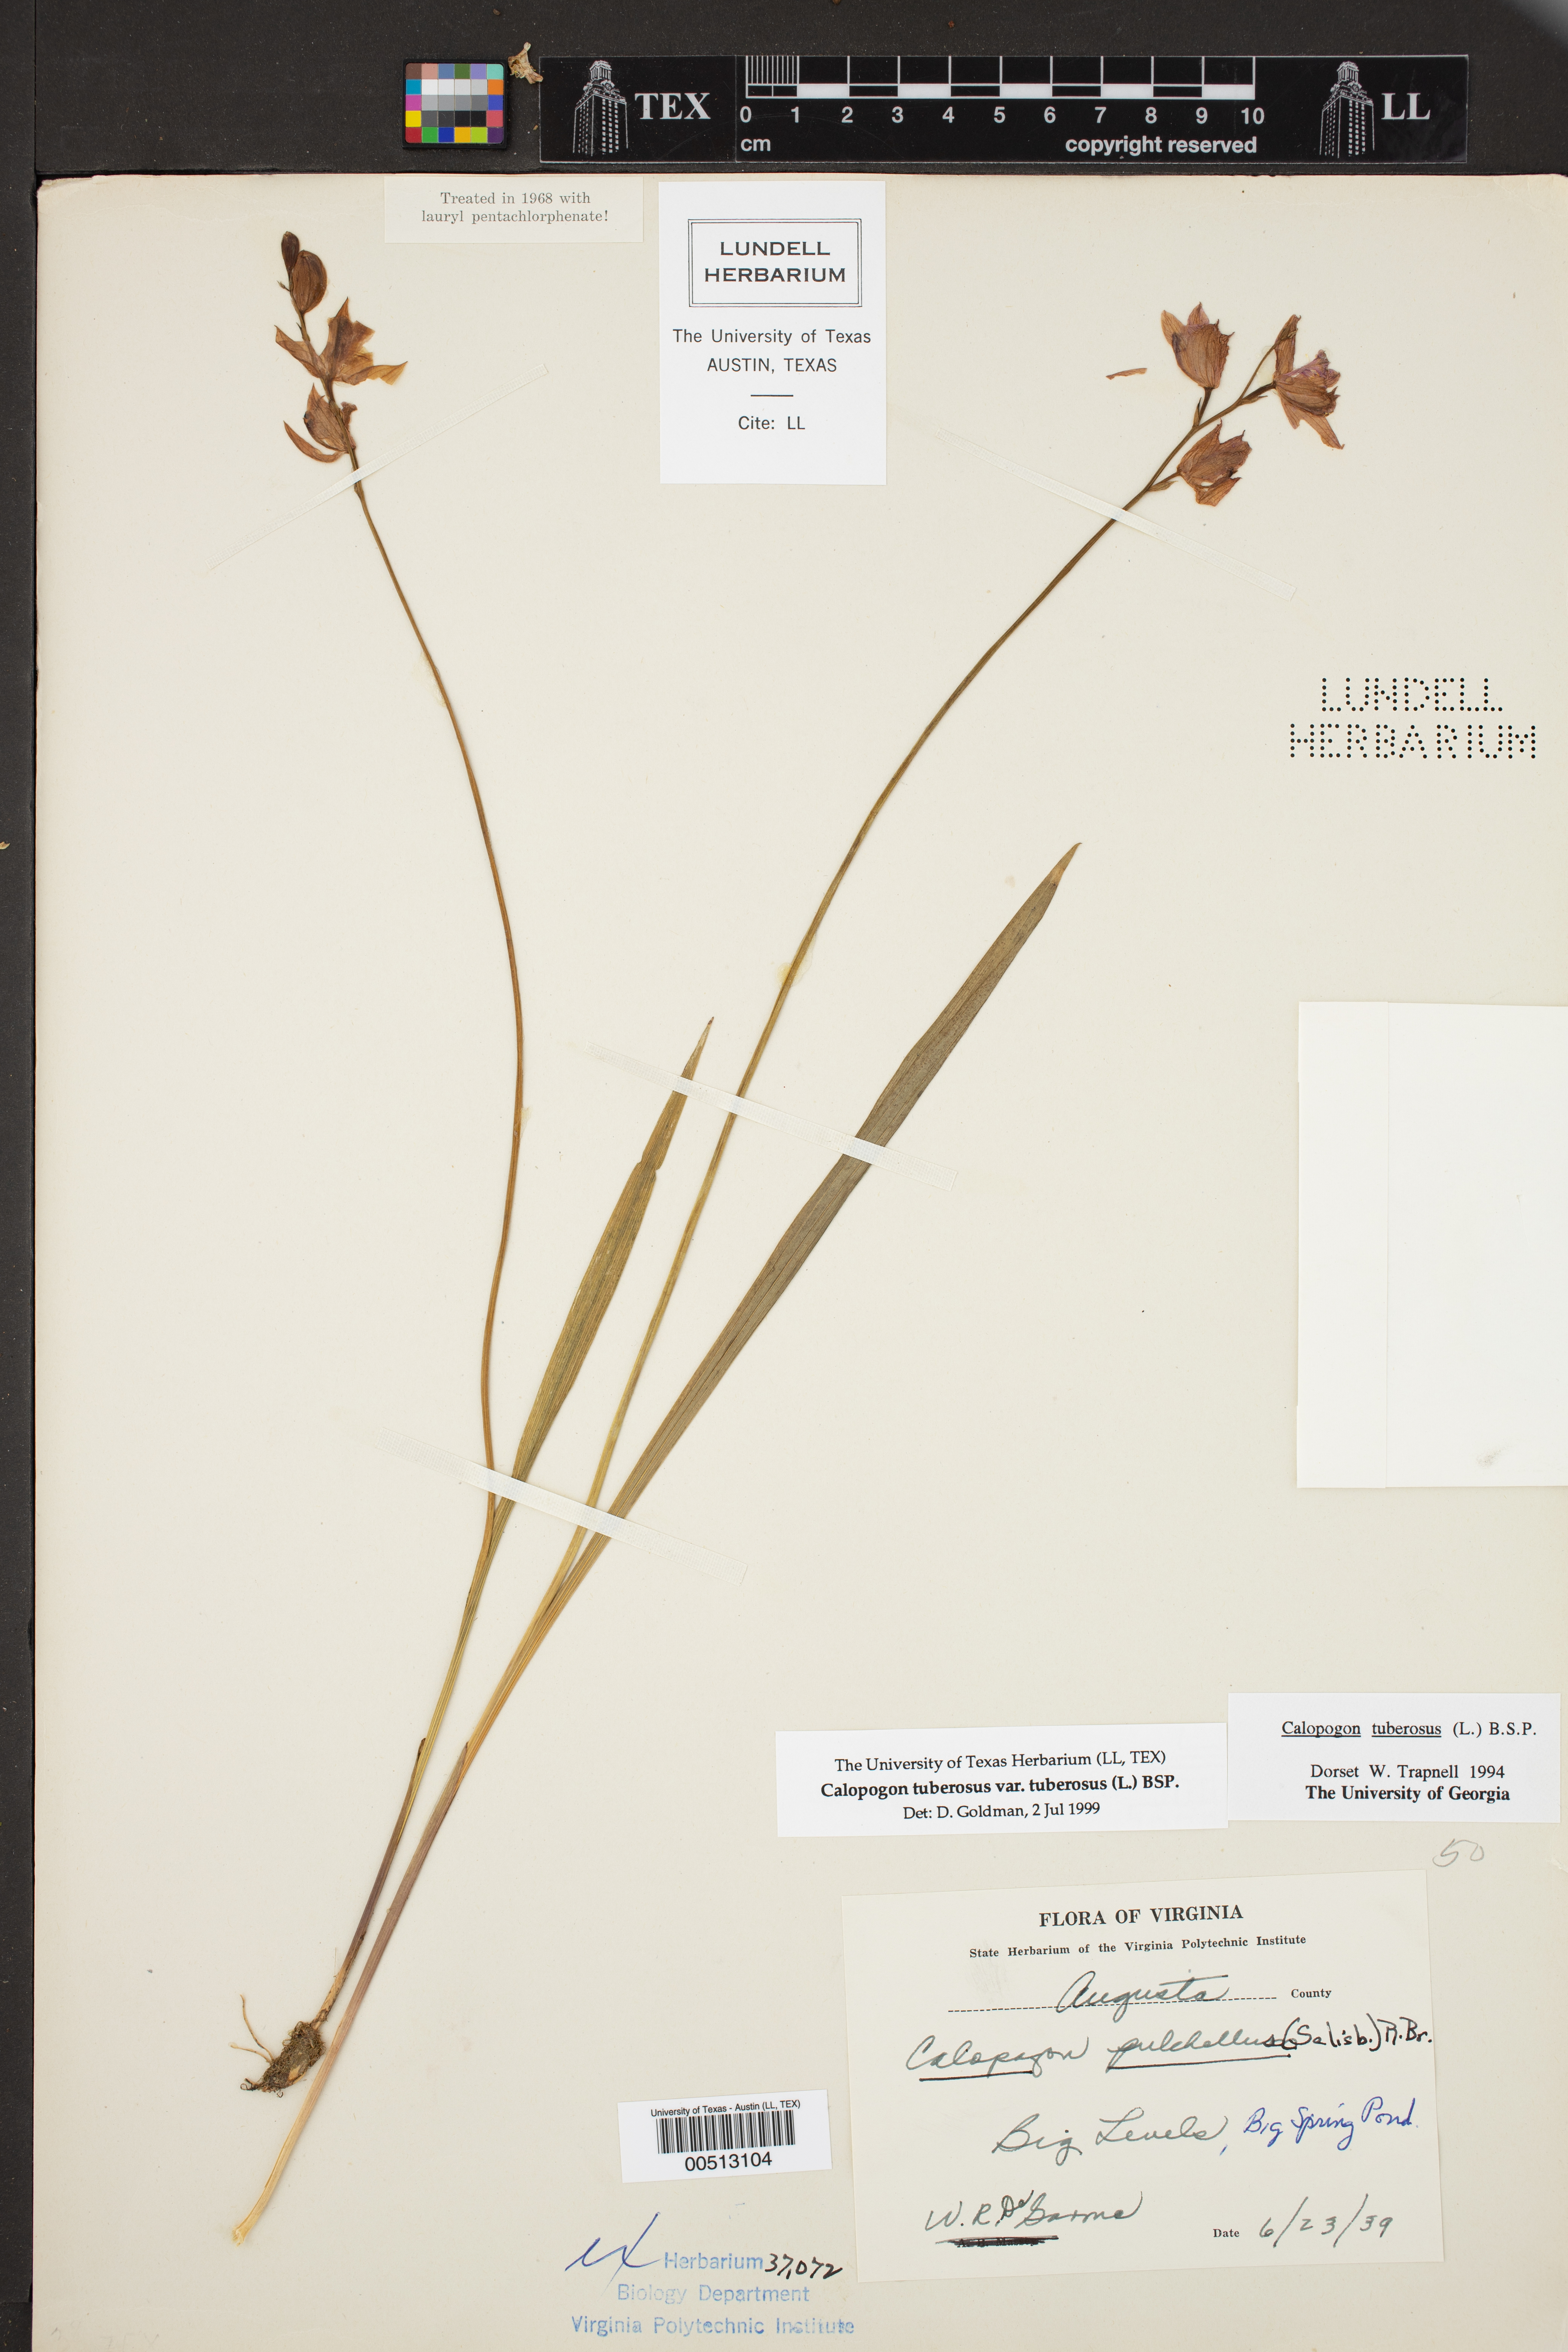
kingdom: Plantae
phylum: Tracheophyta
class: Liliopsida
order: Asparagales
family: Orchidaceae
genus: Calopogon
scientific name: Calopogon tuberosus
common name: Grass-pink
